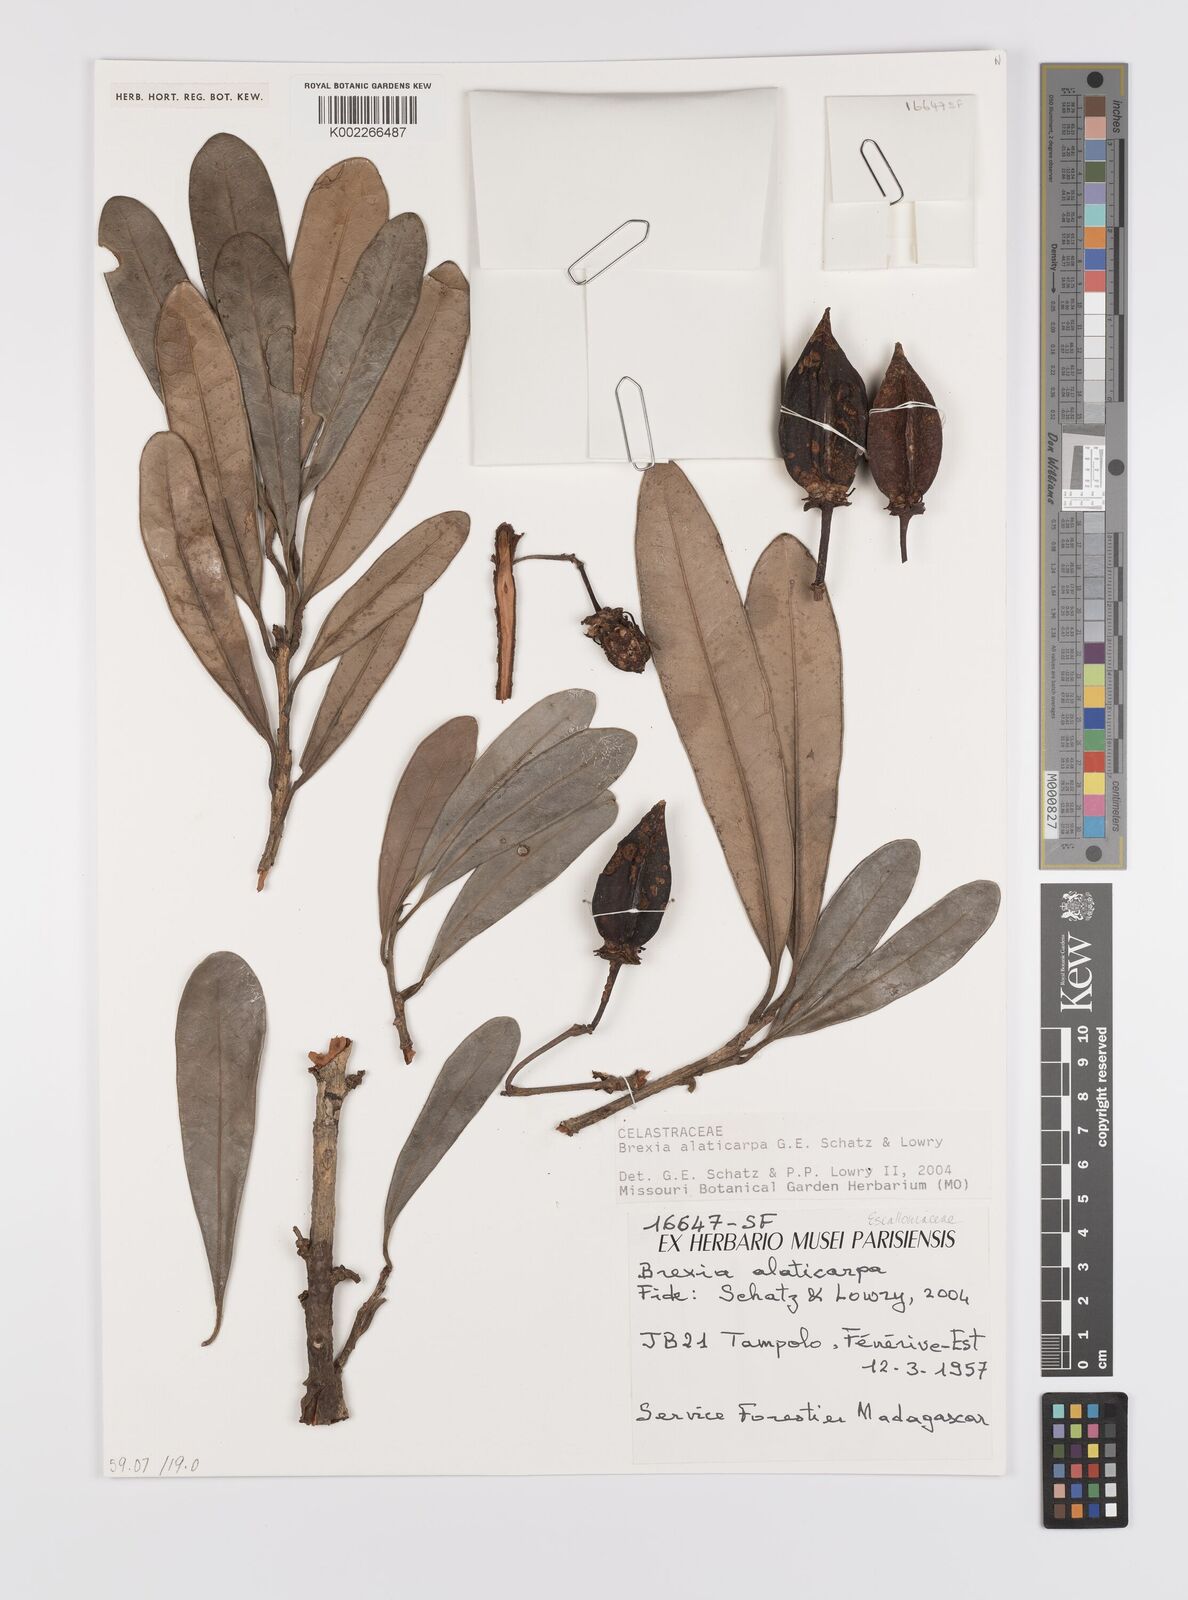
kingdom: Plantae
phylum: Tracheophyta
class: Magnoliopsida
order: Celastrales
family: Celastraceae
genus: Brexia
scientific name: Brexia alaticarpa
